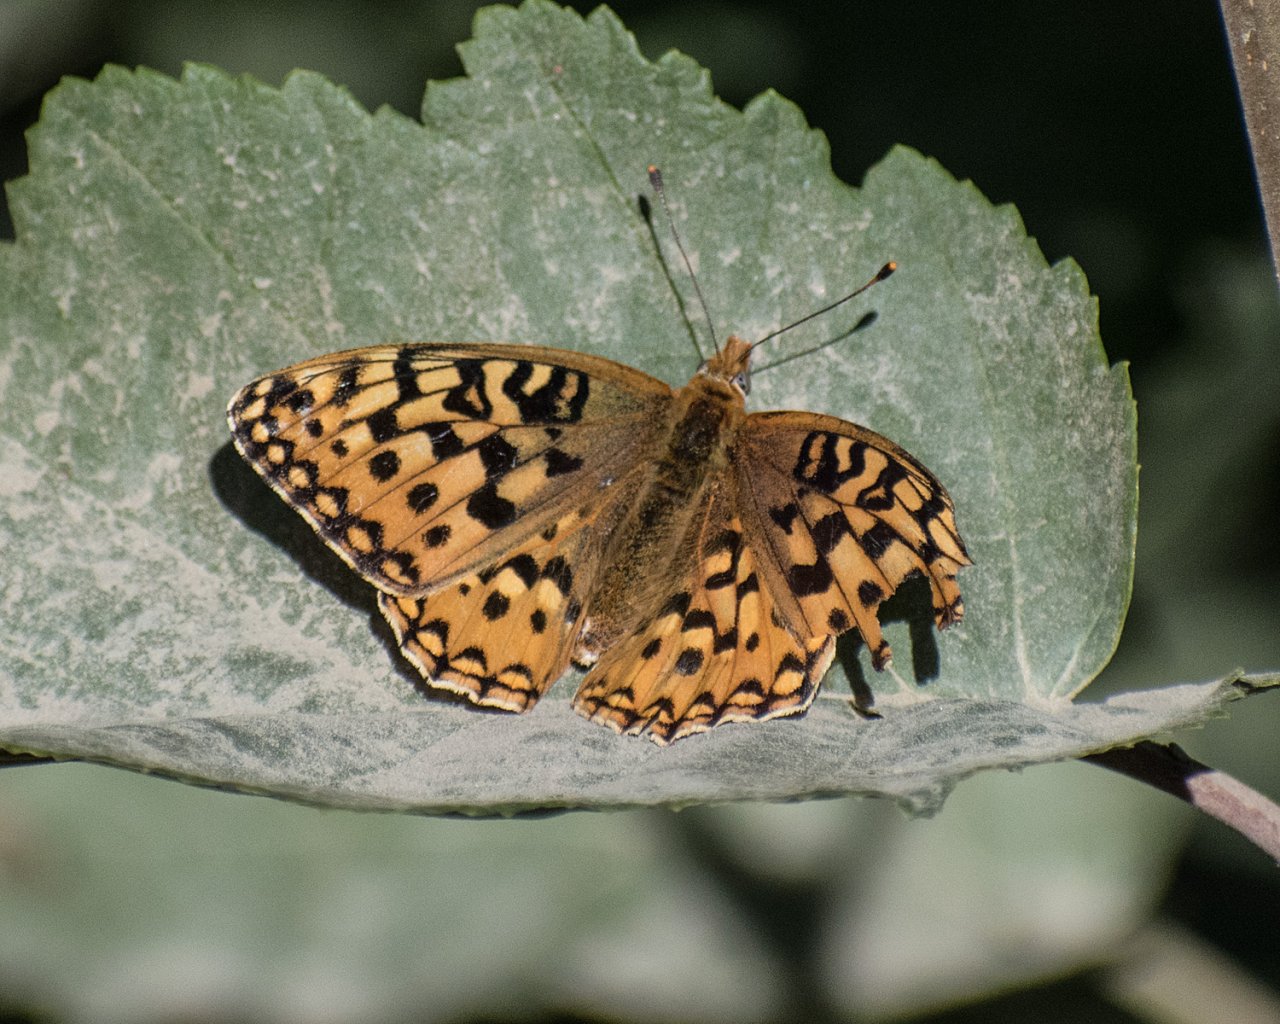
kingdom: Animalia
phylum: Arthropoda
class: Insecta
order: Lepidoptera
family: Nymphalidae
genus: Speyeria
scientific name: Speyeria
